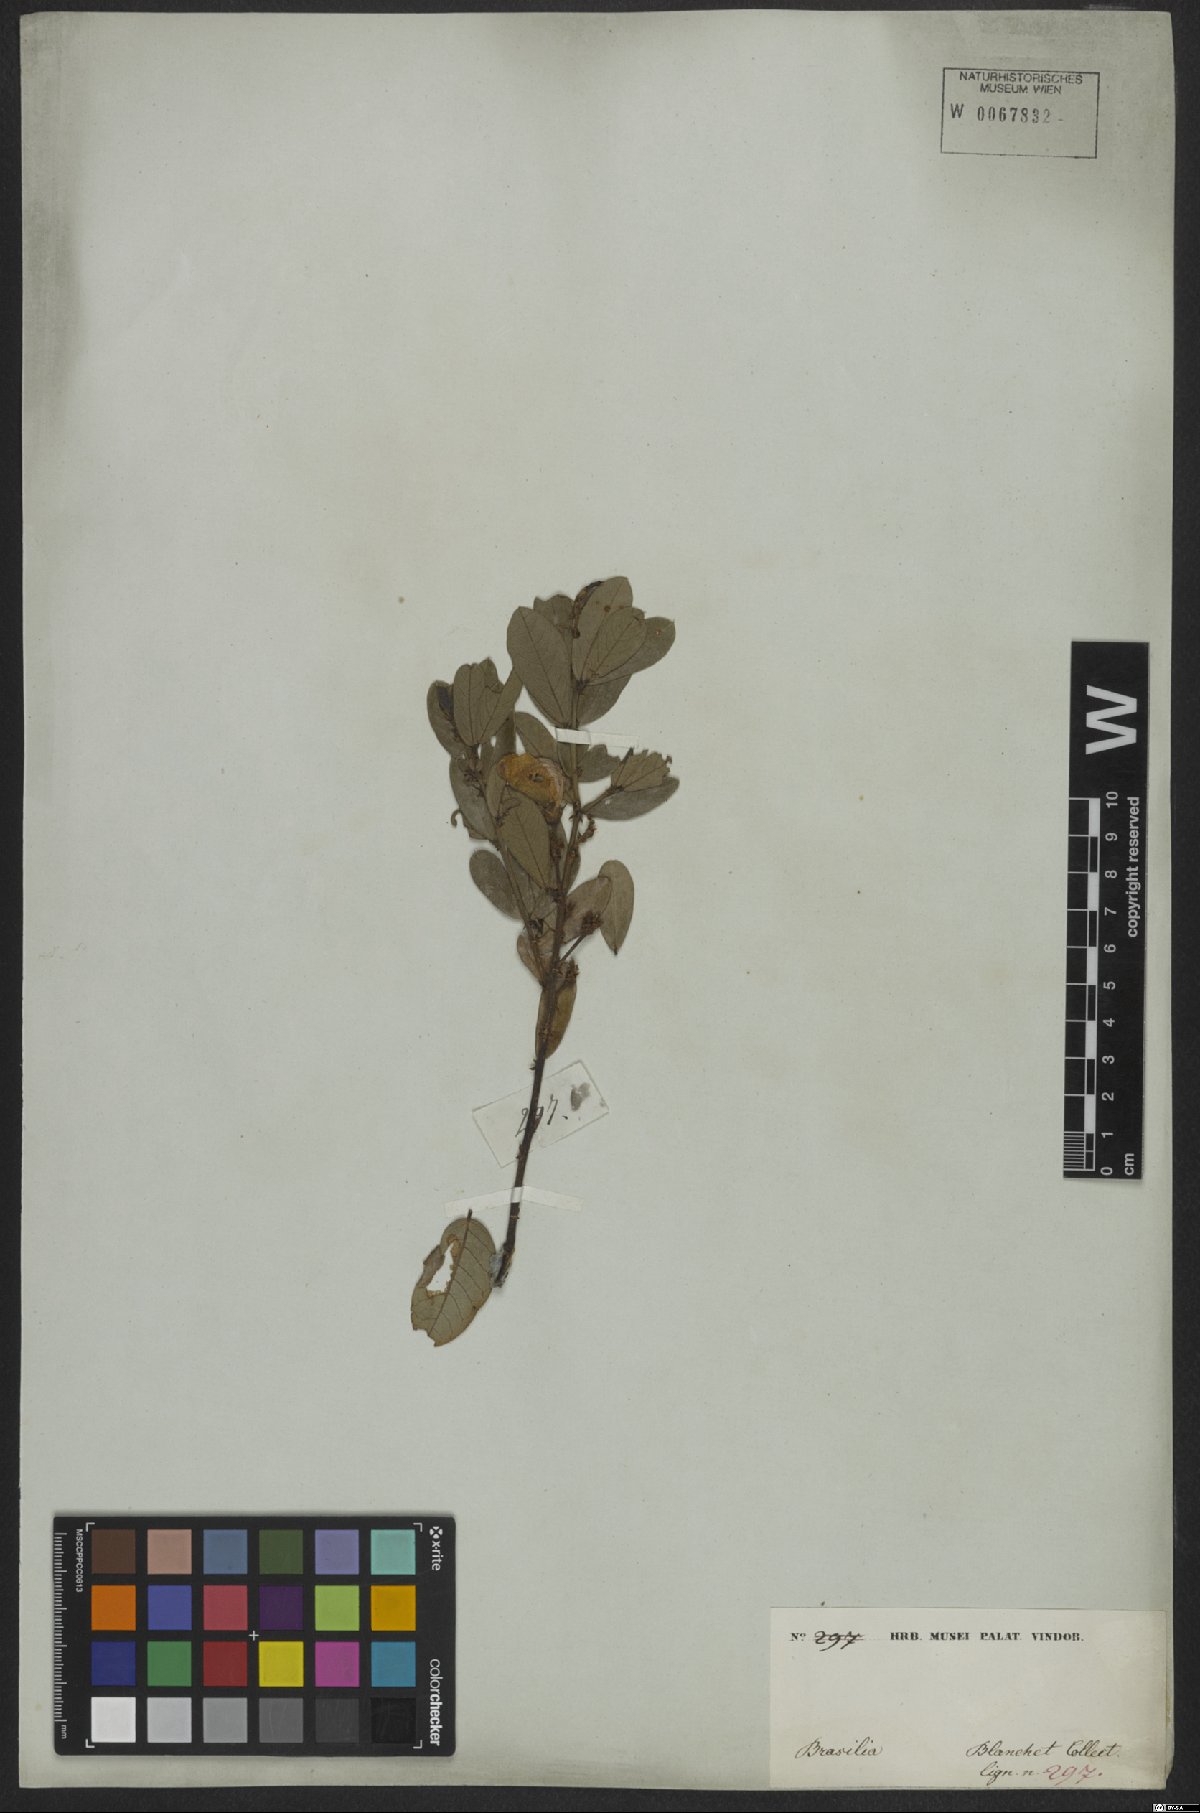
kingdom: Plantae
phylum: Tracheophyta
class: Magnoliopsida
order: Fabales
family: Fabaceae
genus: Periandra
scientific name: Periandra mediterranea
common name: Brazilian licorice
